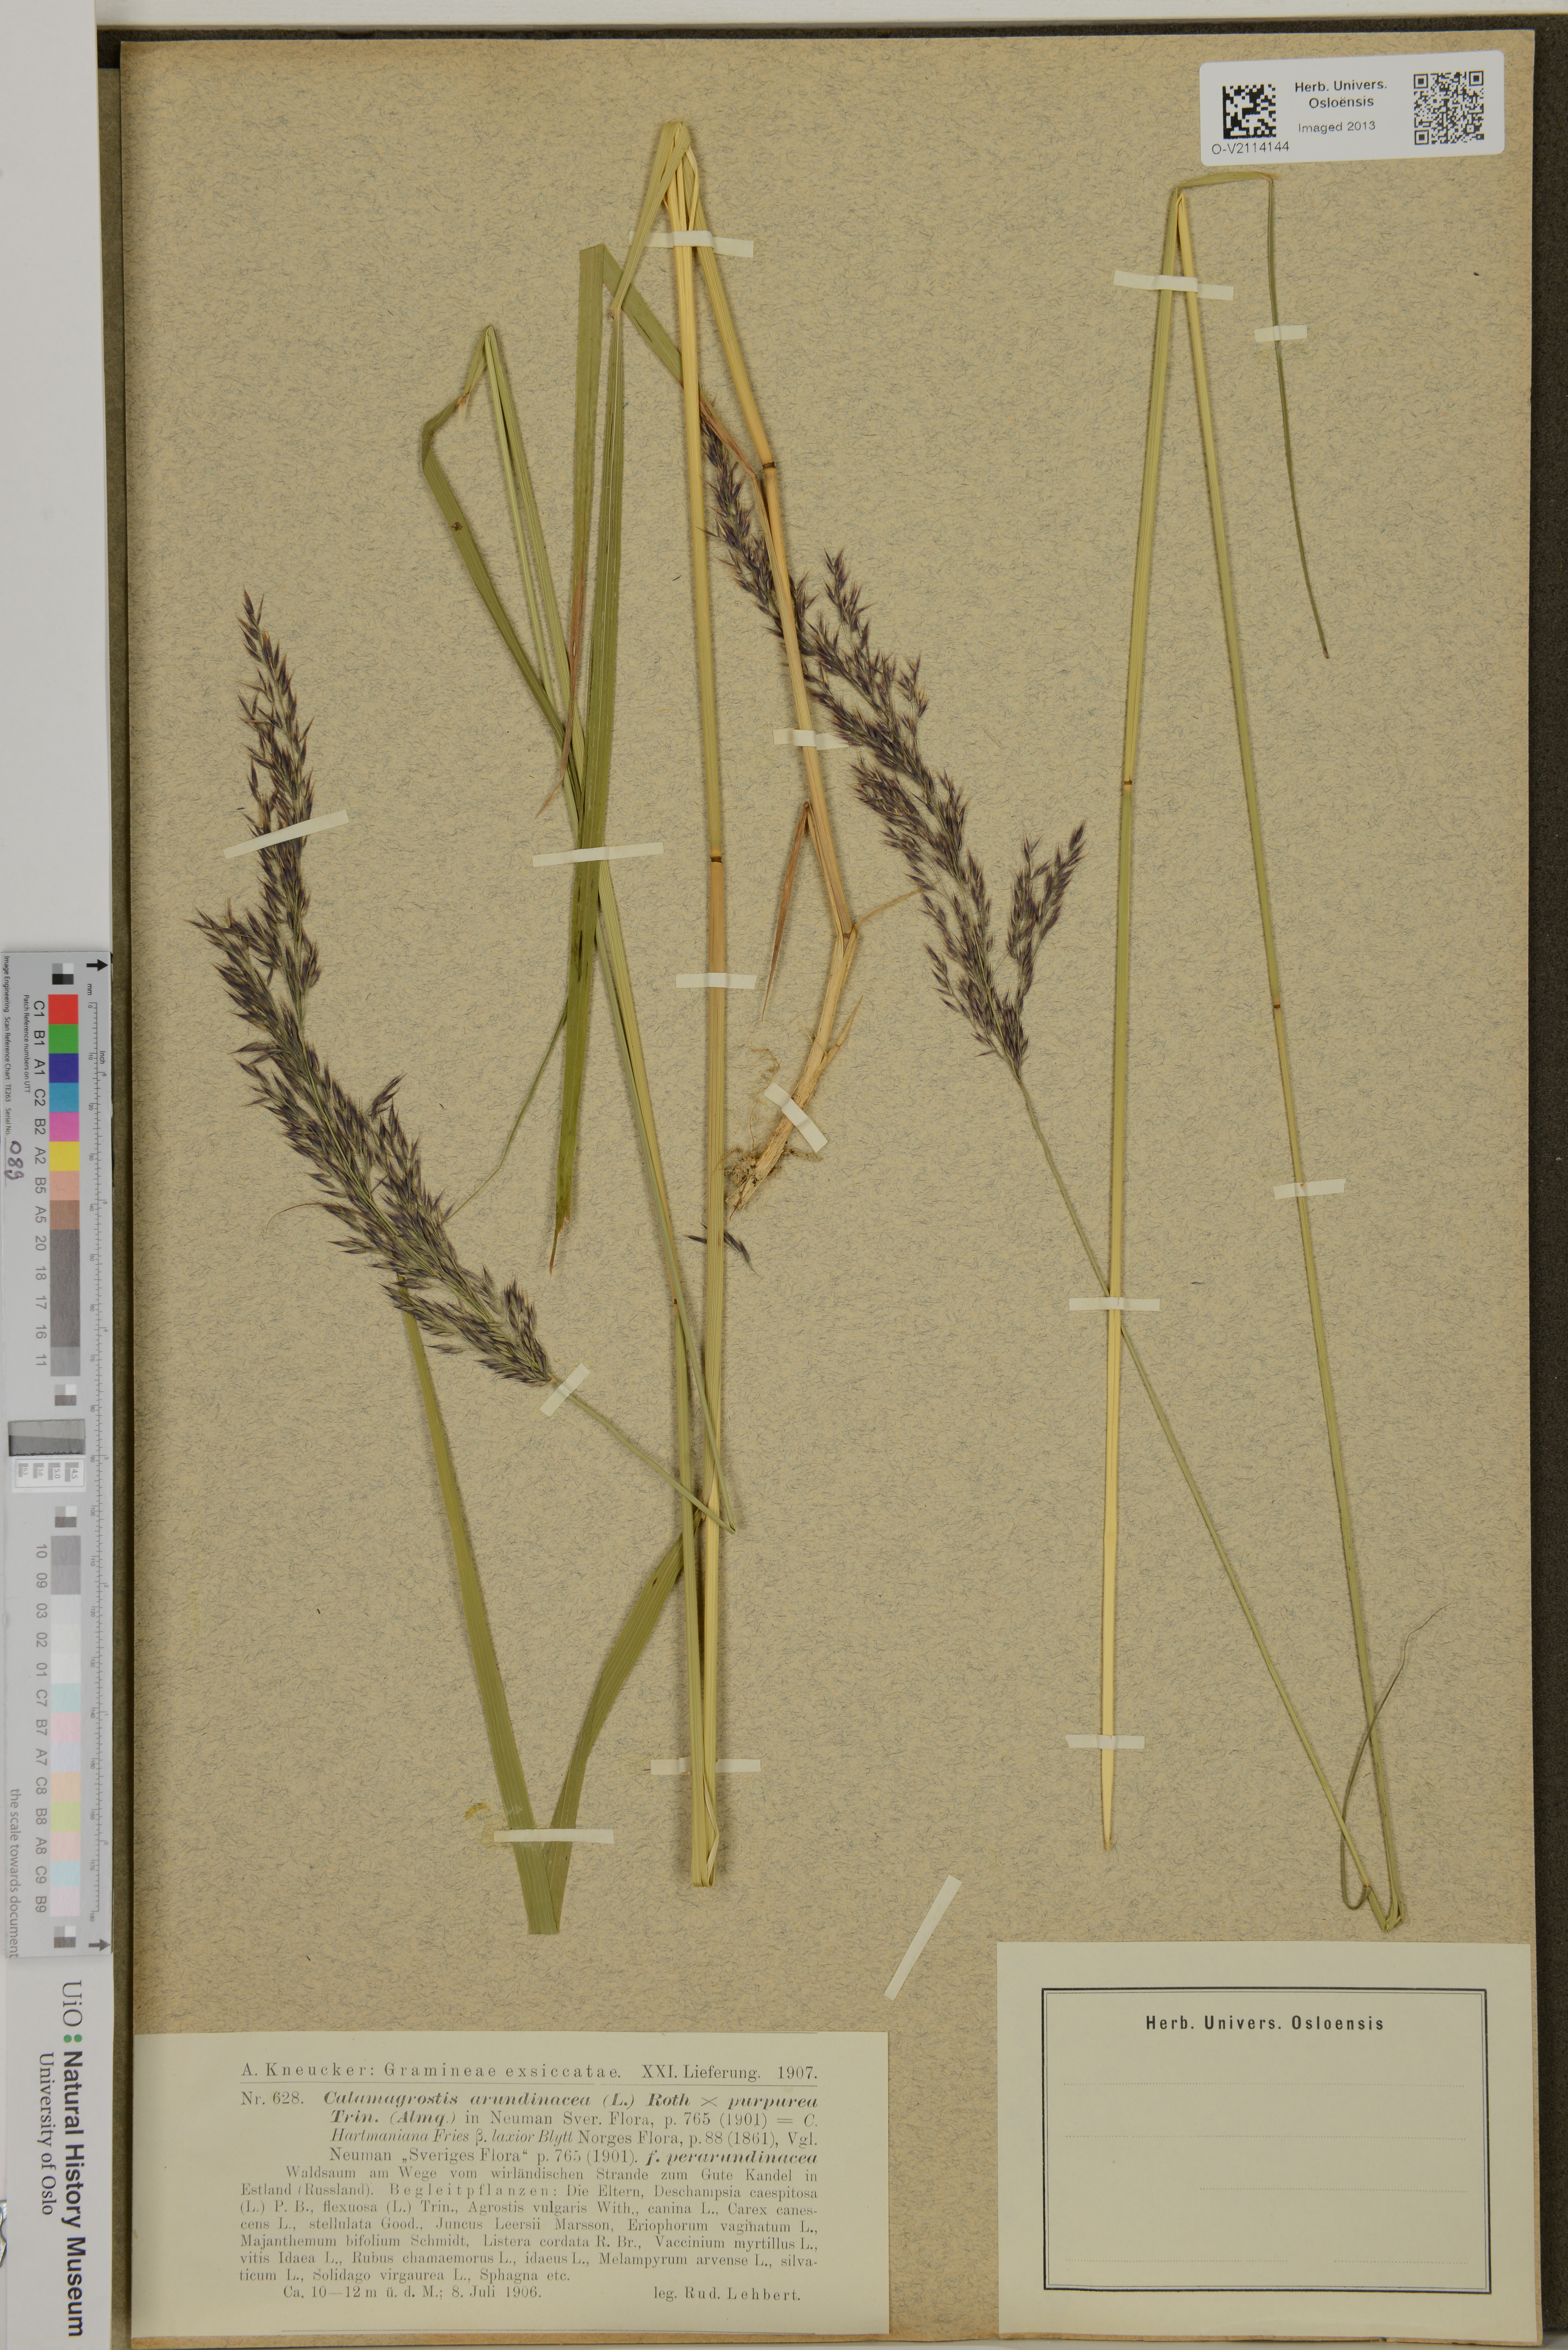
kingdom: Plantae
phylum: Tracheophyta
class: Liliopsida
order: Poales
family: Poaceae
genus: Calamagrostis
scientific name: Calamagrostis arundinacea
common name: Metskastik
